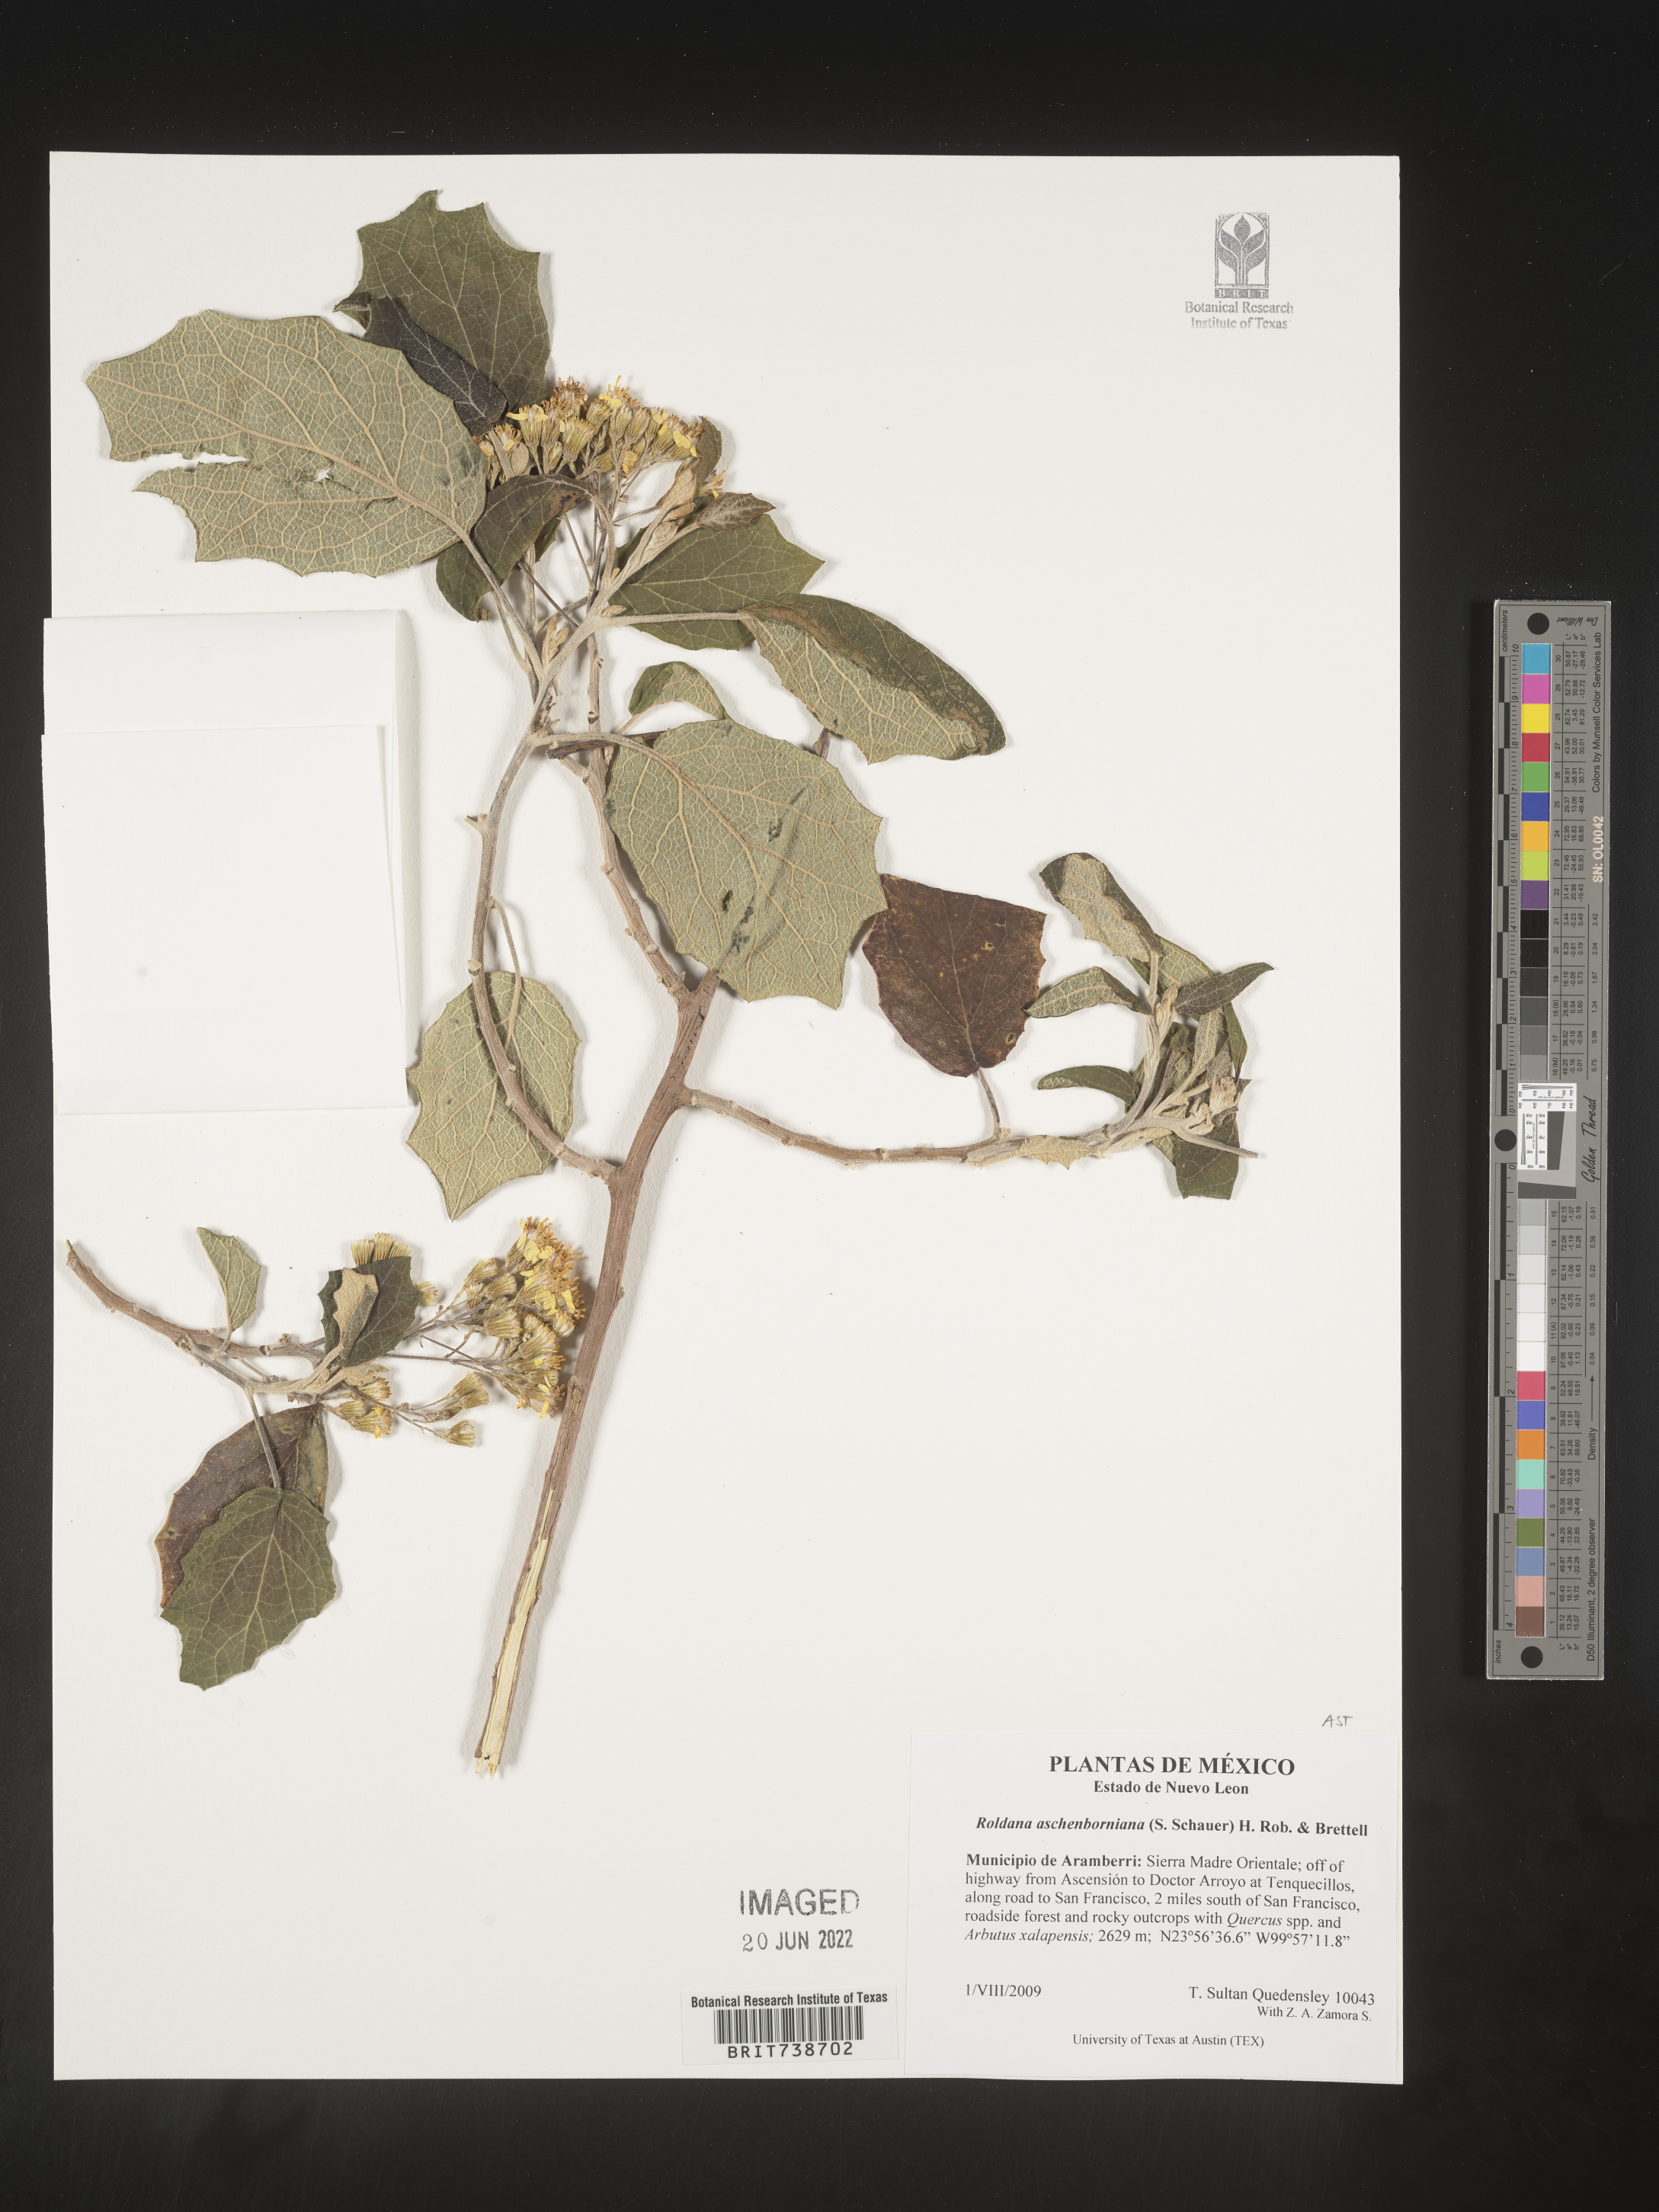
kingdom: Plantae
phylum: Tracheophyta
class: Magnoliopsida
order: Asterales
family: Asteraceae
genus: Roldana
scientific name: Roldana
